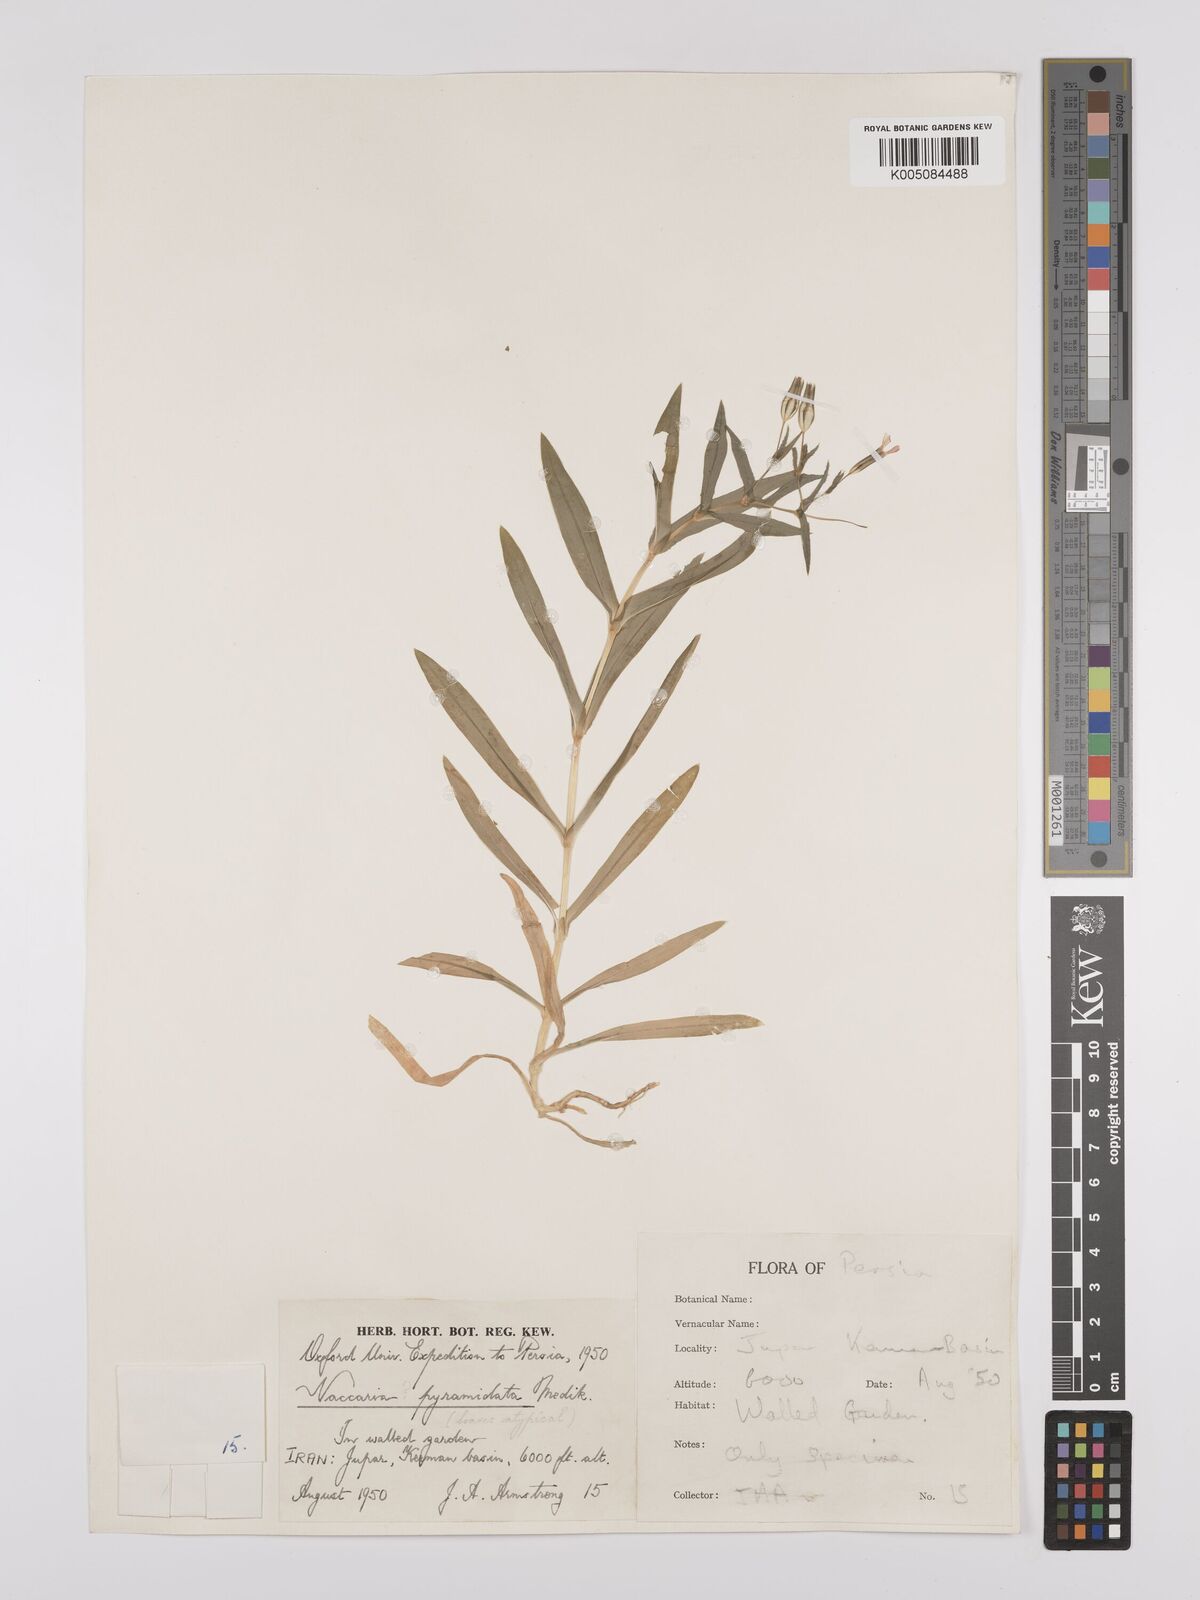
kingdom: Plantae
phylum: Tracheophyta
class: Magnoliopsida
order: Caryophyllales
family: Caryophyllaceae
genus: Gypsophila
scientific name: Gypsophila vaccaria
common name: Cow soapwort
